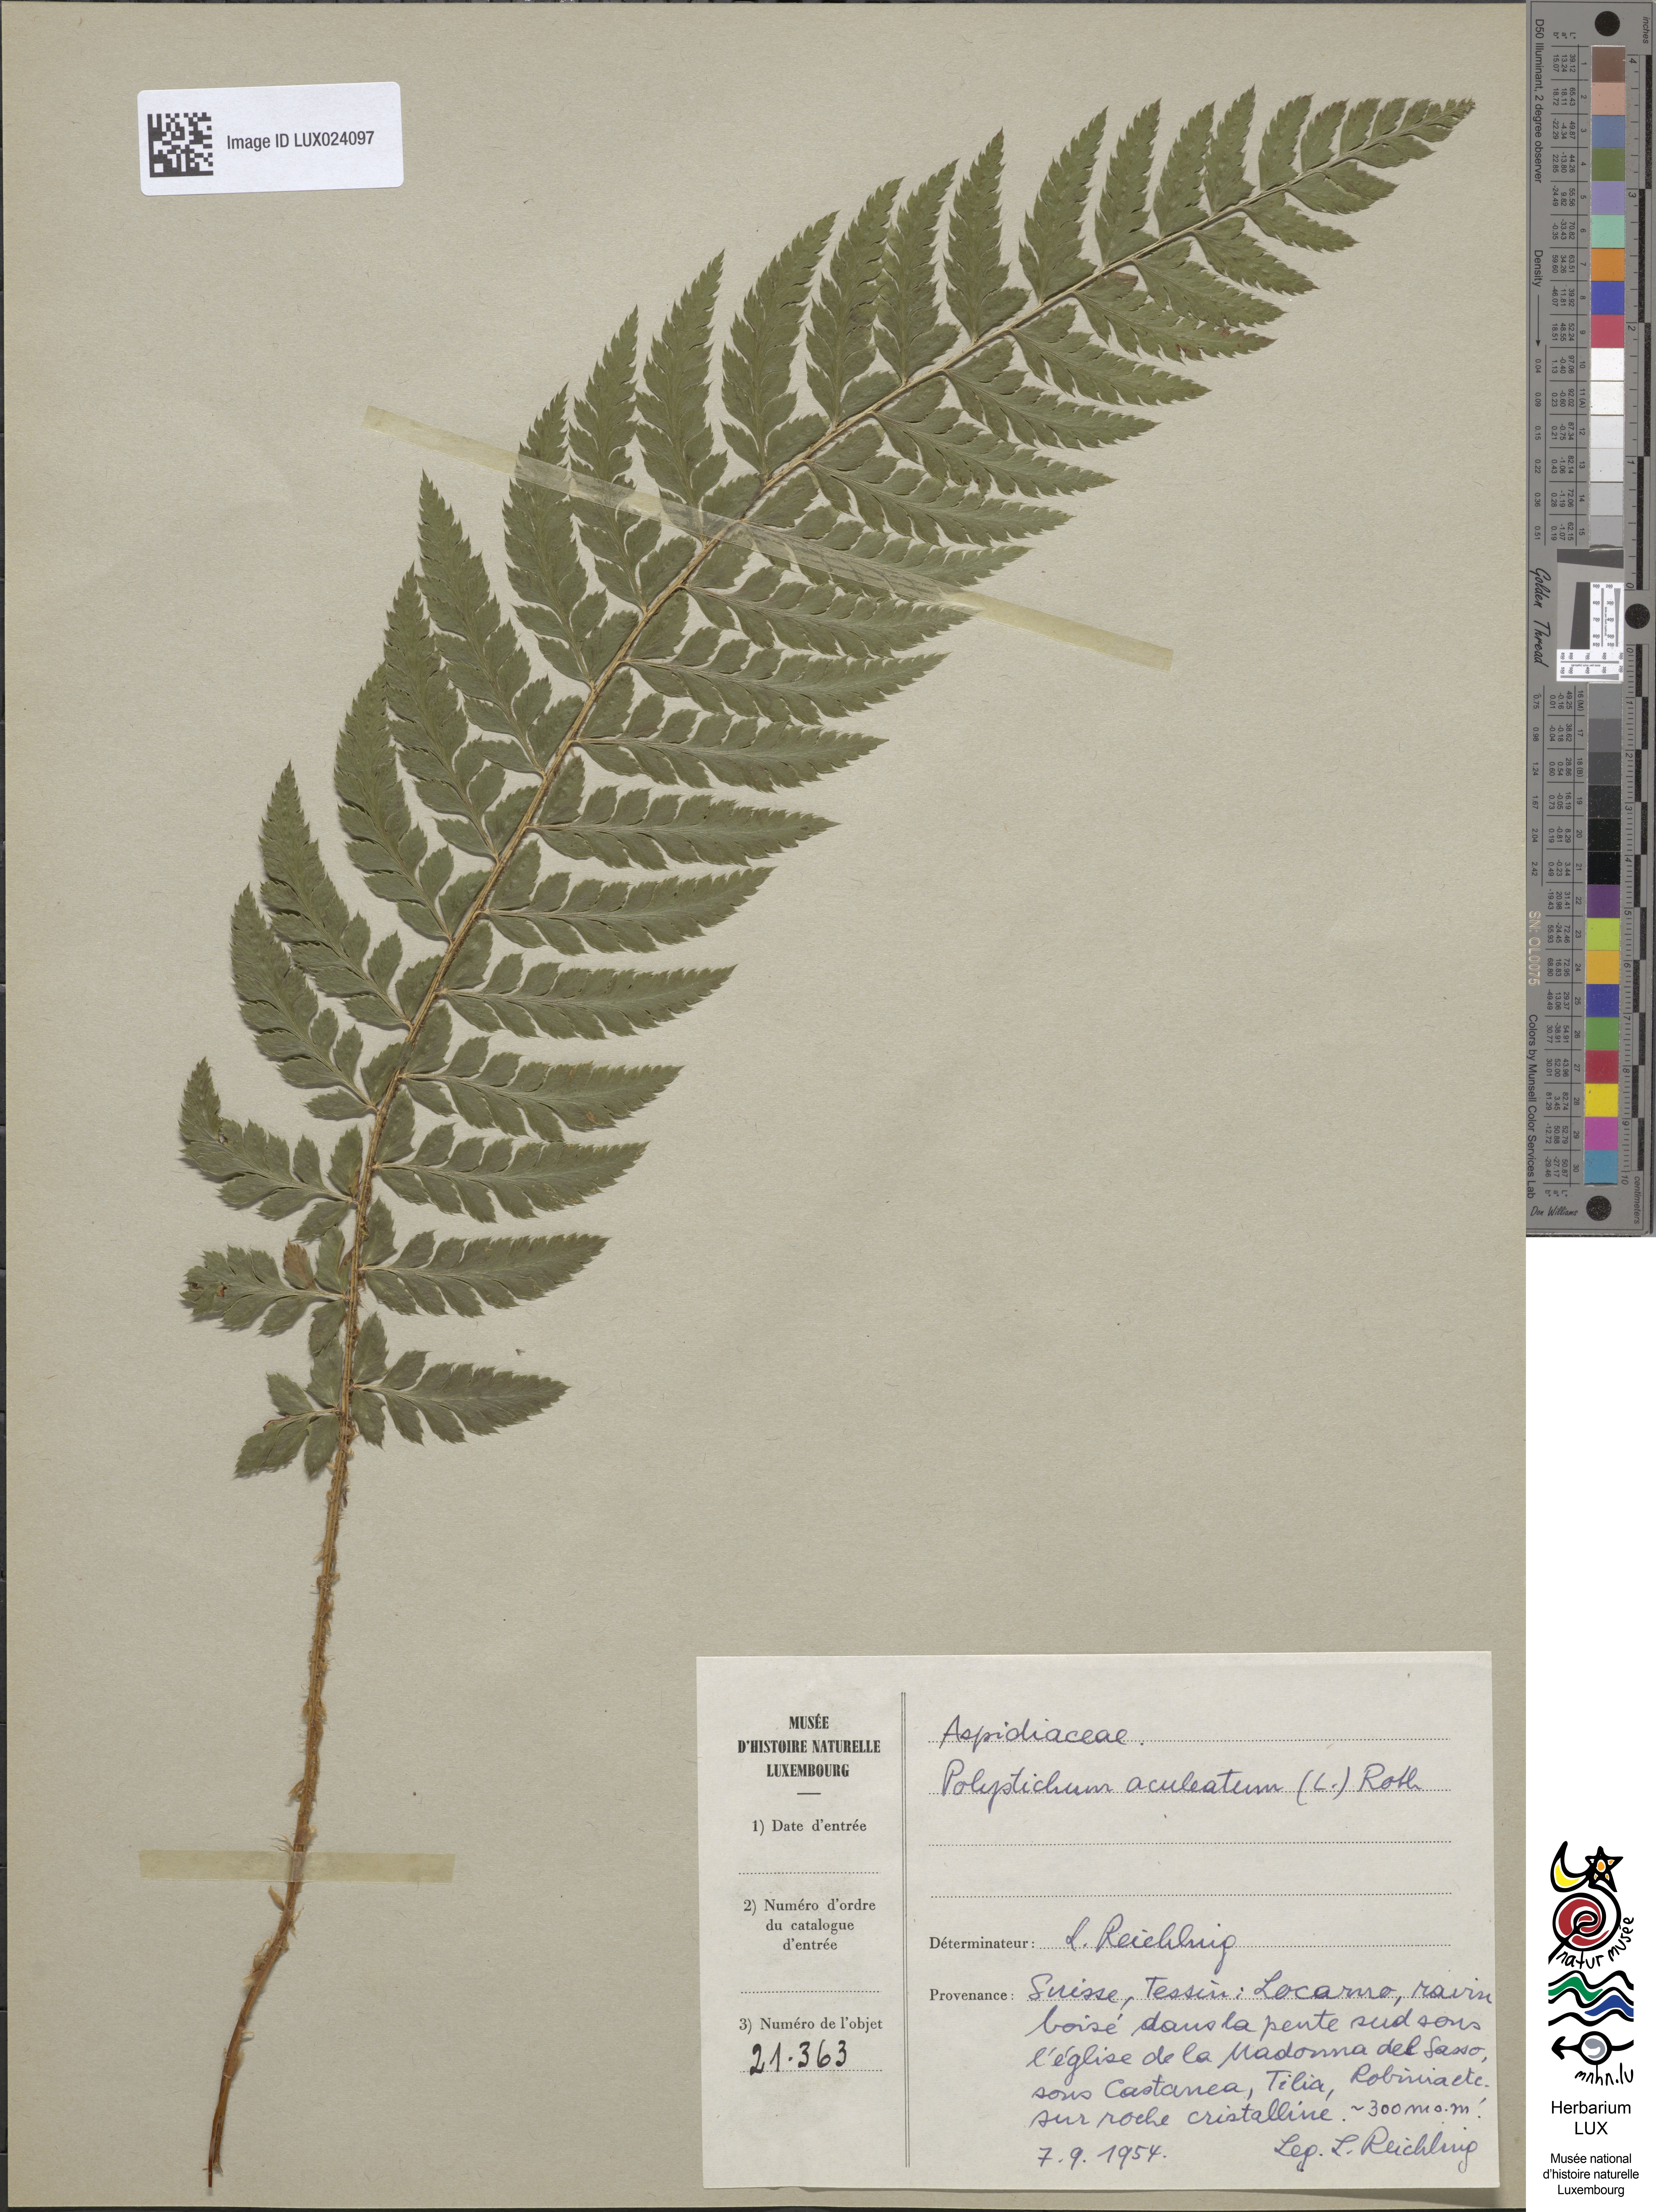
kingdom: Plantae
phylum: Tracheophyta
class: Polypodiopsida
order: Polypodiales
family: Dryopteridaceae
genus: Polystichum
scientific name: Polystichum aculeatum
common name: Hard shield-fern
